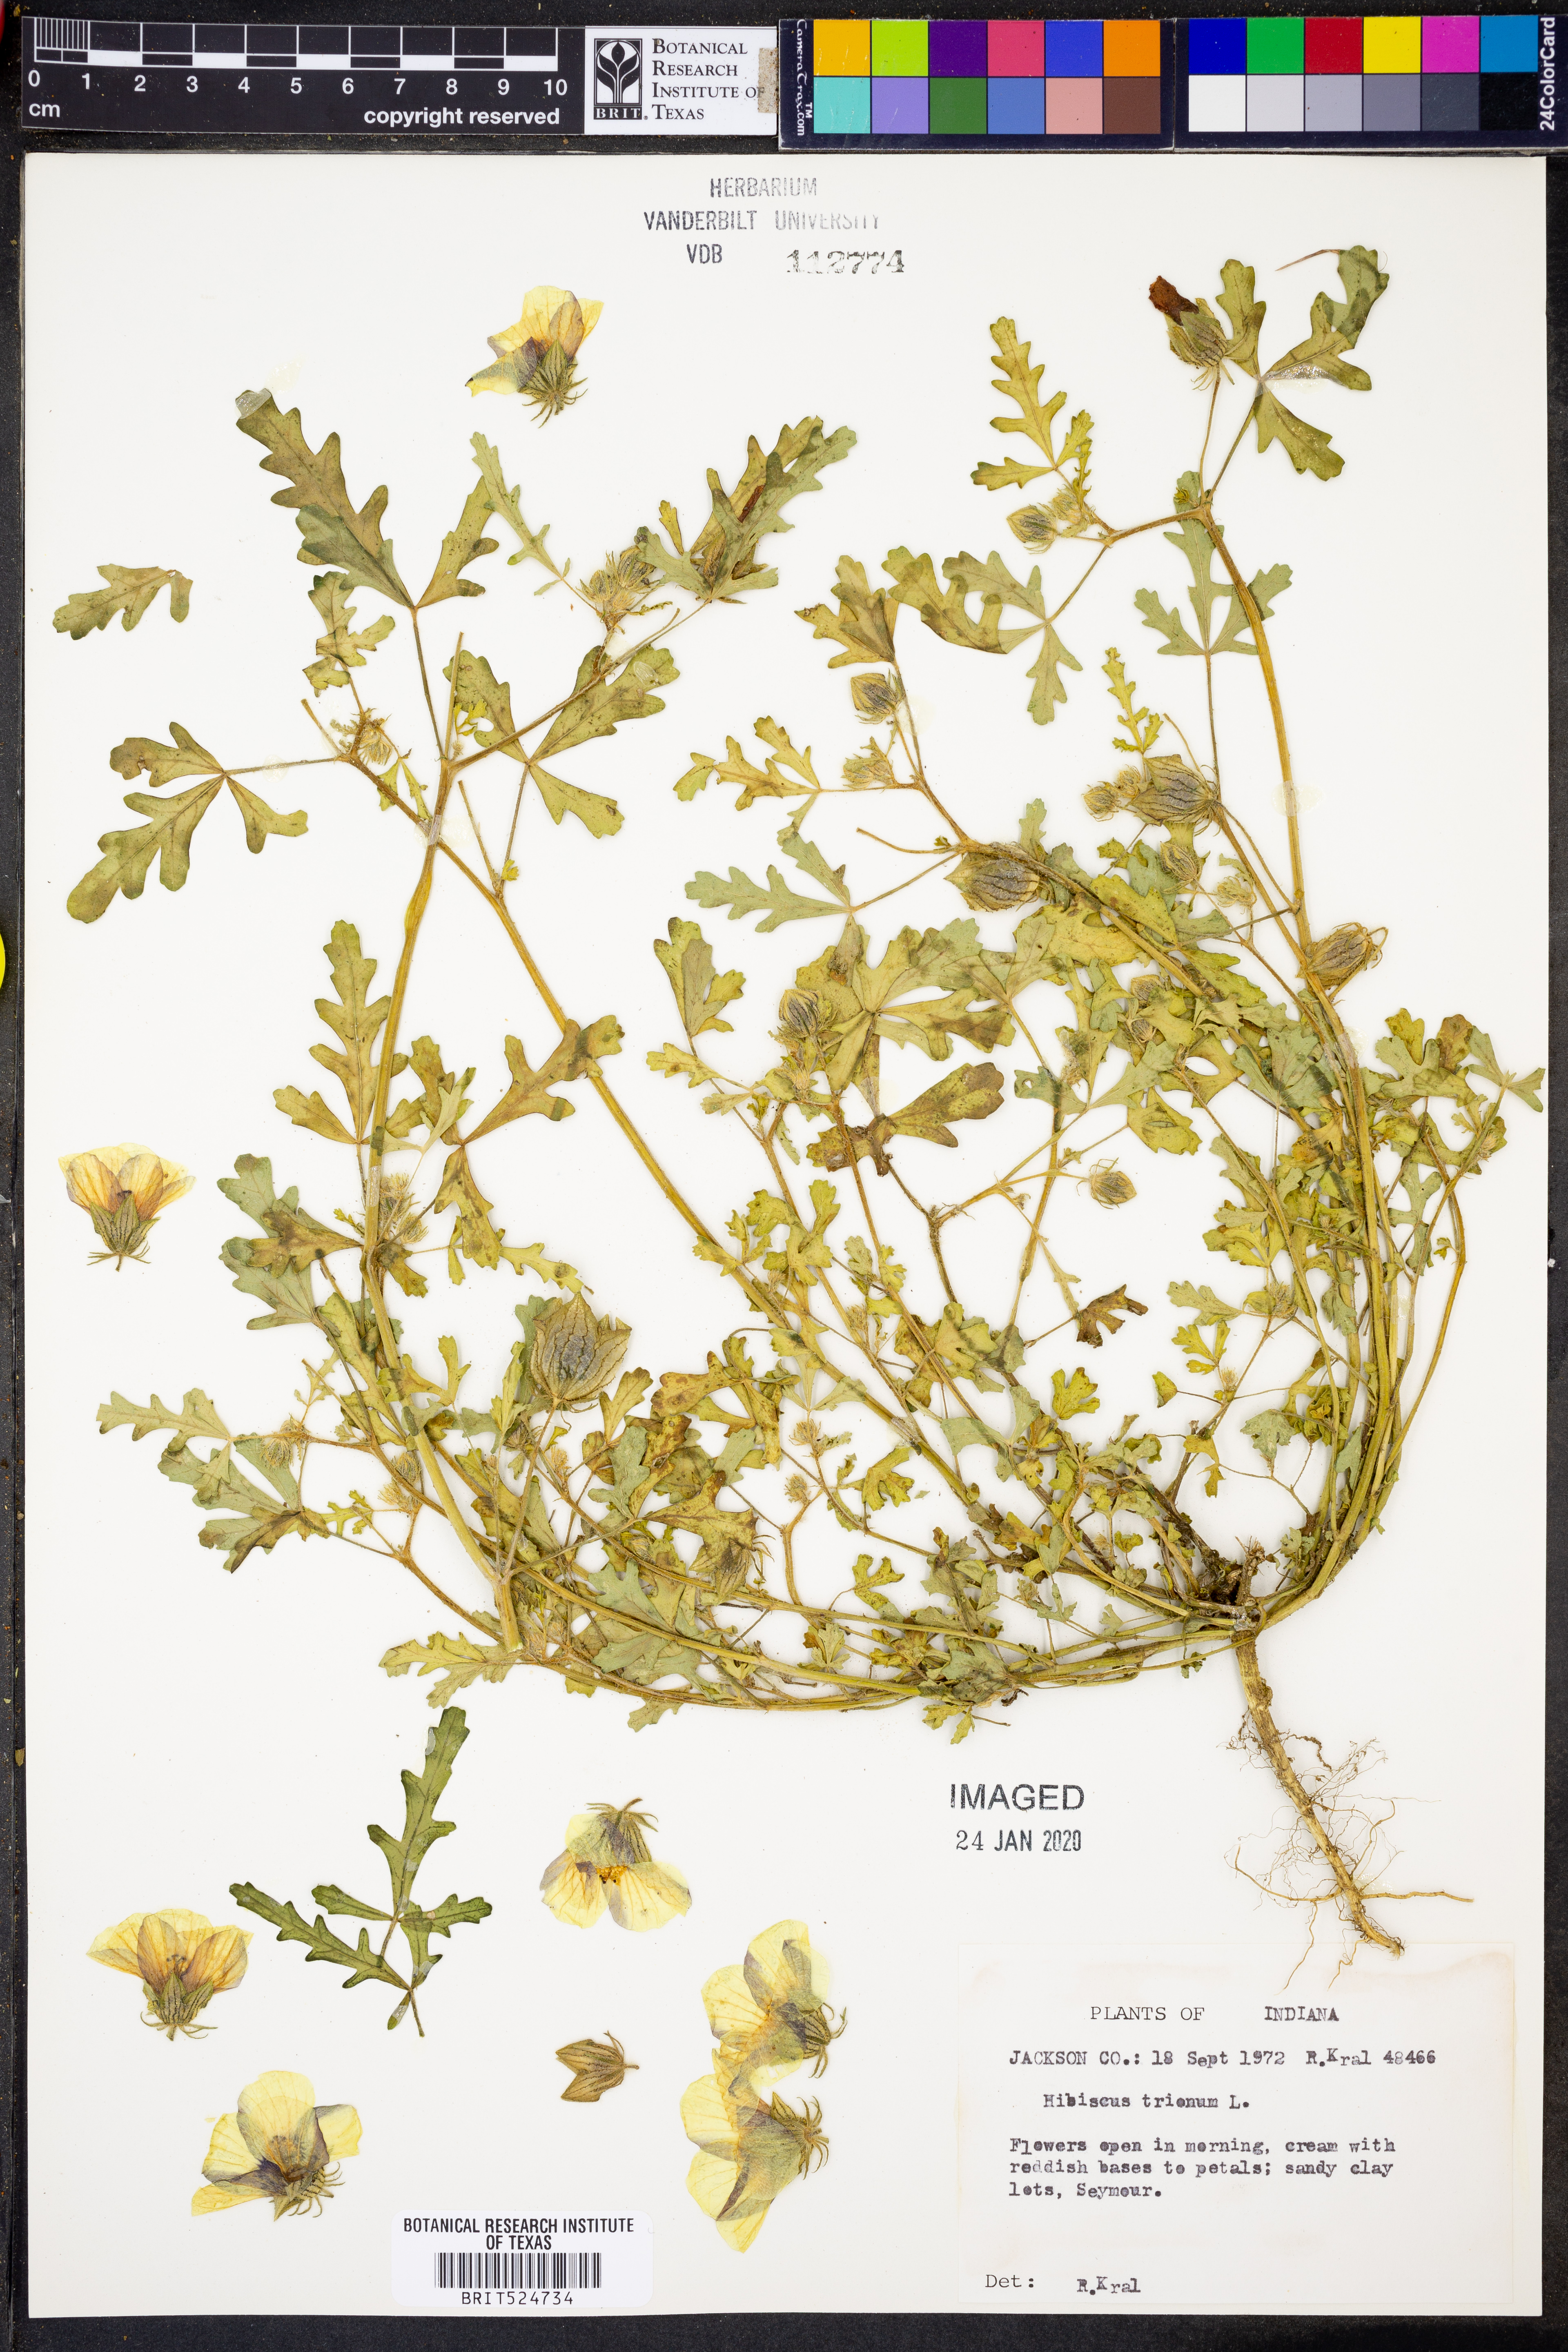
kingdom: Plantae
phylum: Tracheophyta
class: Magnoliopsida
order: Malvales
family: Malvaceae
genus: Hibiscus
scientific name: Hibiscus trionum
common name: Bladder ketmia
